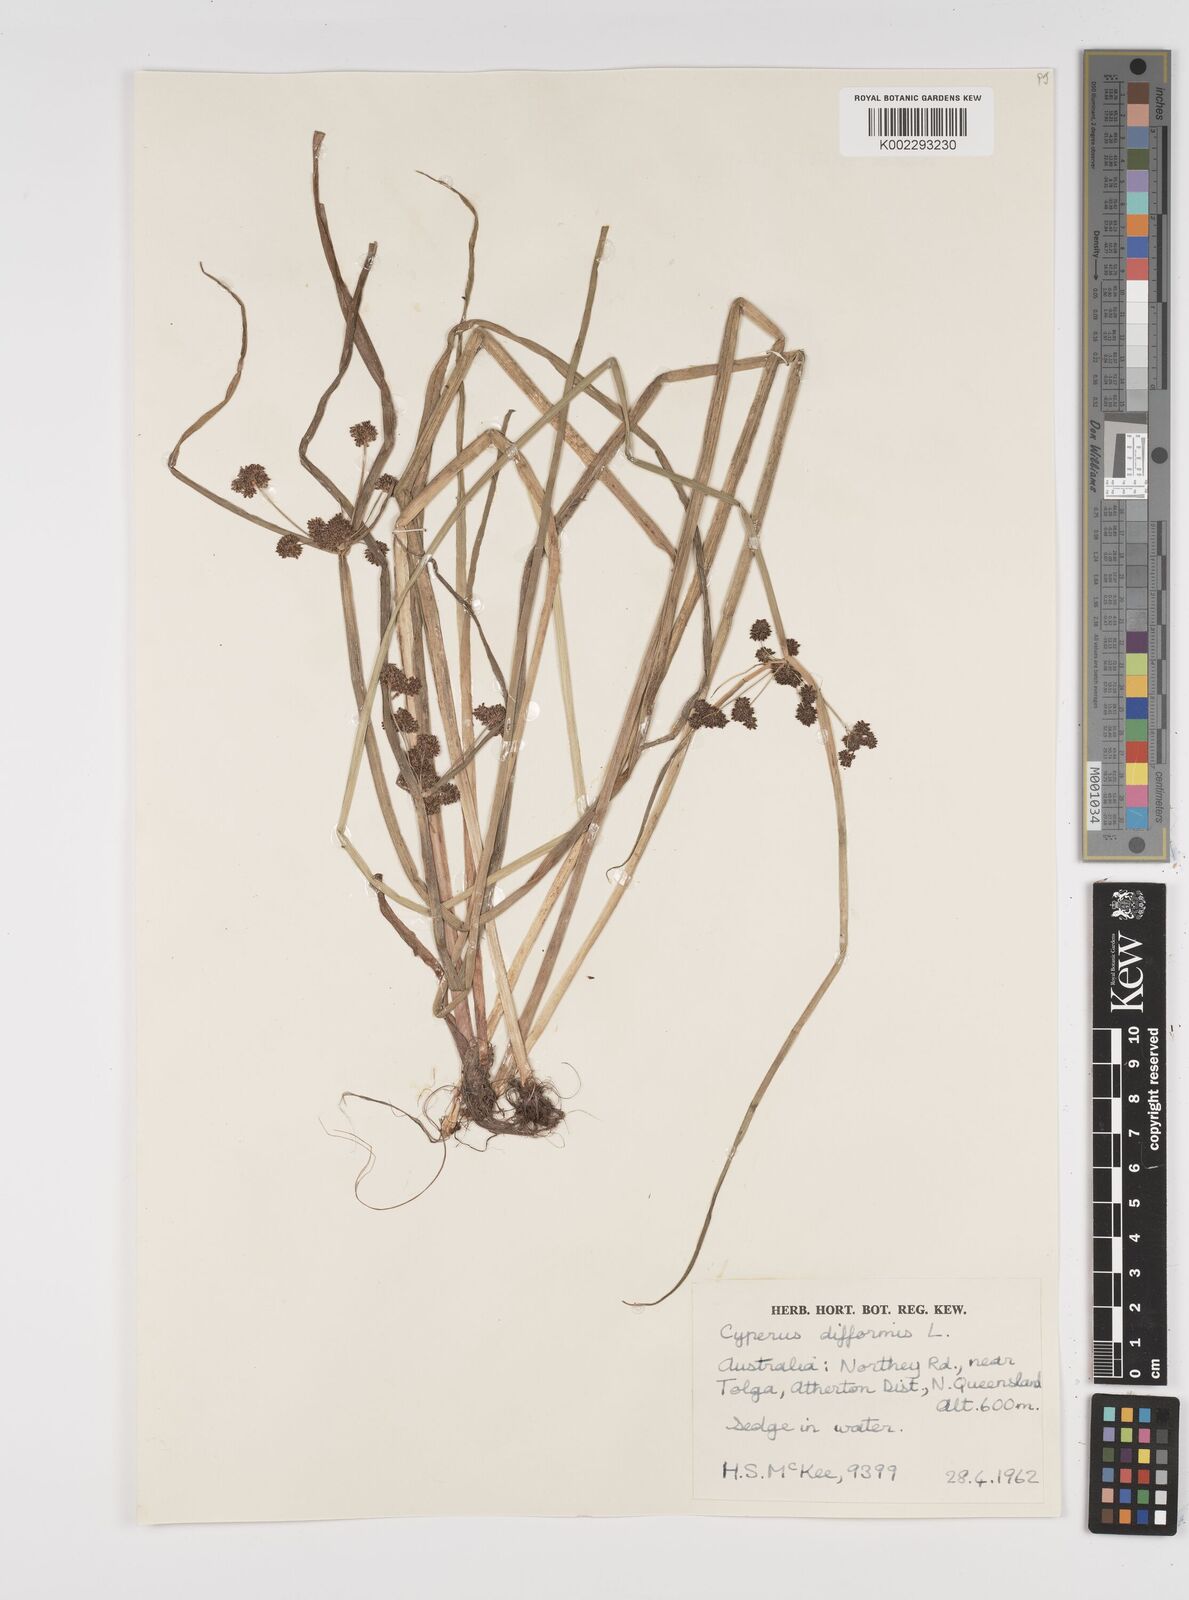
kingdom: Plantae
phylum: Tracheophyta
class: Liliopsida
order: Poales
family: Cyperaceae
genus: Cyperus
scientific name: Cyperus difformis
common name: Variable flatsedge
